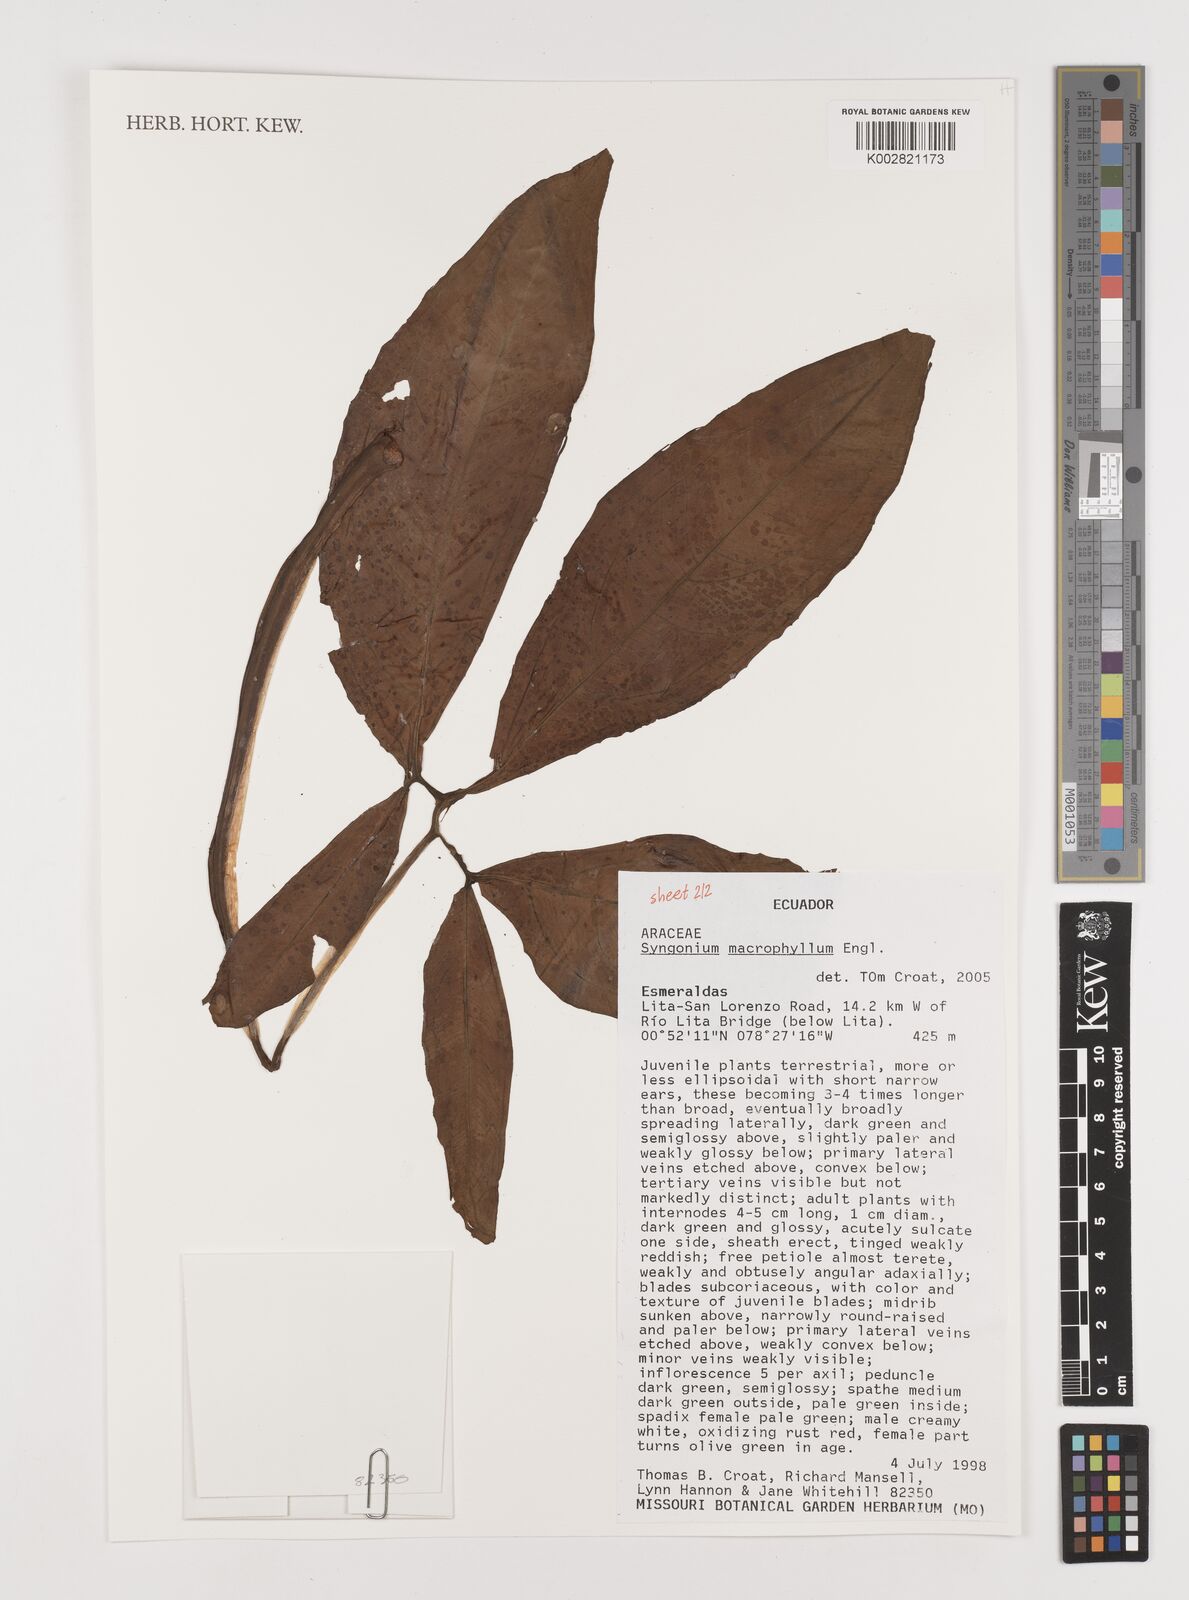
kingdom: Plantae
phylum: Tracheophyta
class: Liliopsida
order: Alismatales
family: Araceae
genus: Syngonium
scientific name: Syngonium macrophyllum
